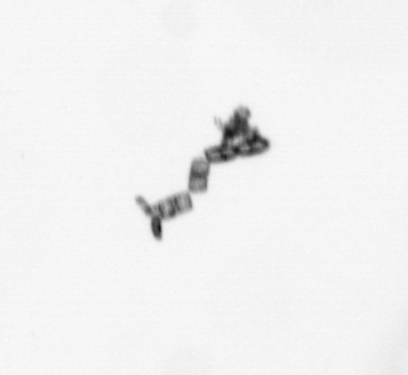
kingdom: Chromista
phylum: Ochrophyta
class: Bacillariophyceae
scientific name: Bacillariophyceae
